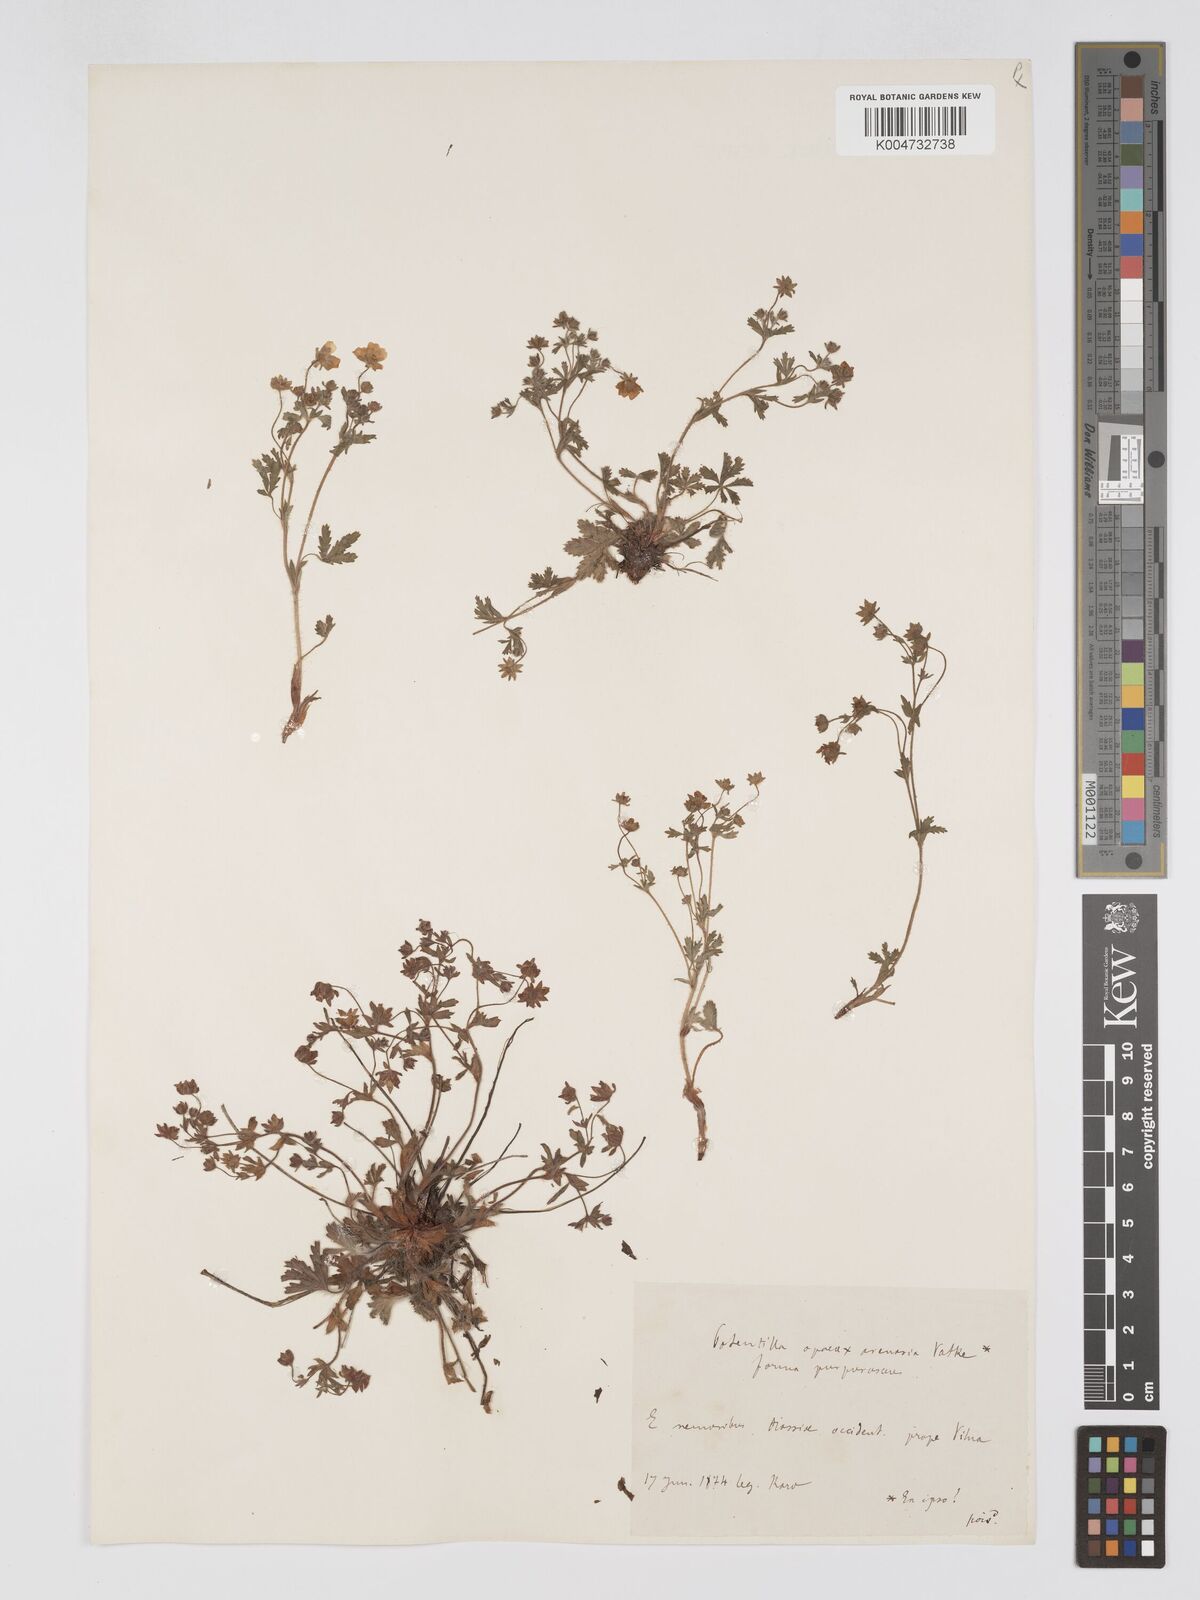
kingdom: Plantae
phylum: Tracheophyta
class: Magnoliopsida
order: Rosales
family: Rosaceae
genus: Potentilla
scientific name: Potentilla cinerea
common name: Ashy cinquefoil
